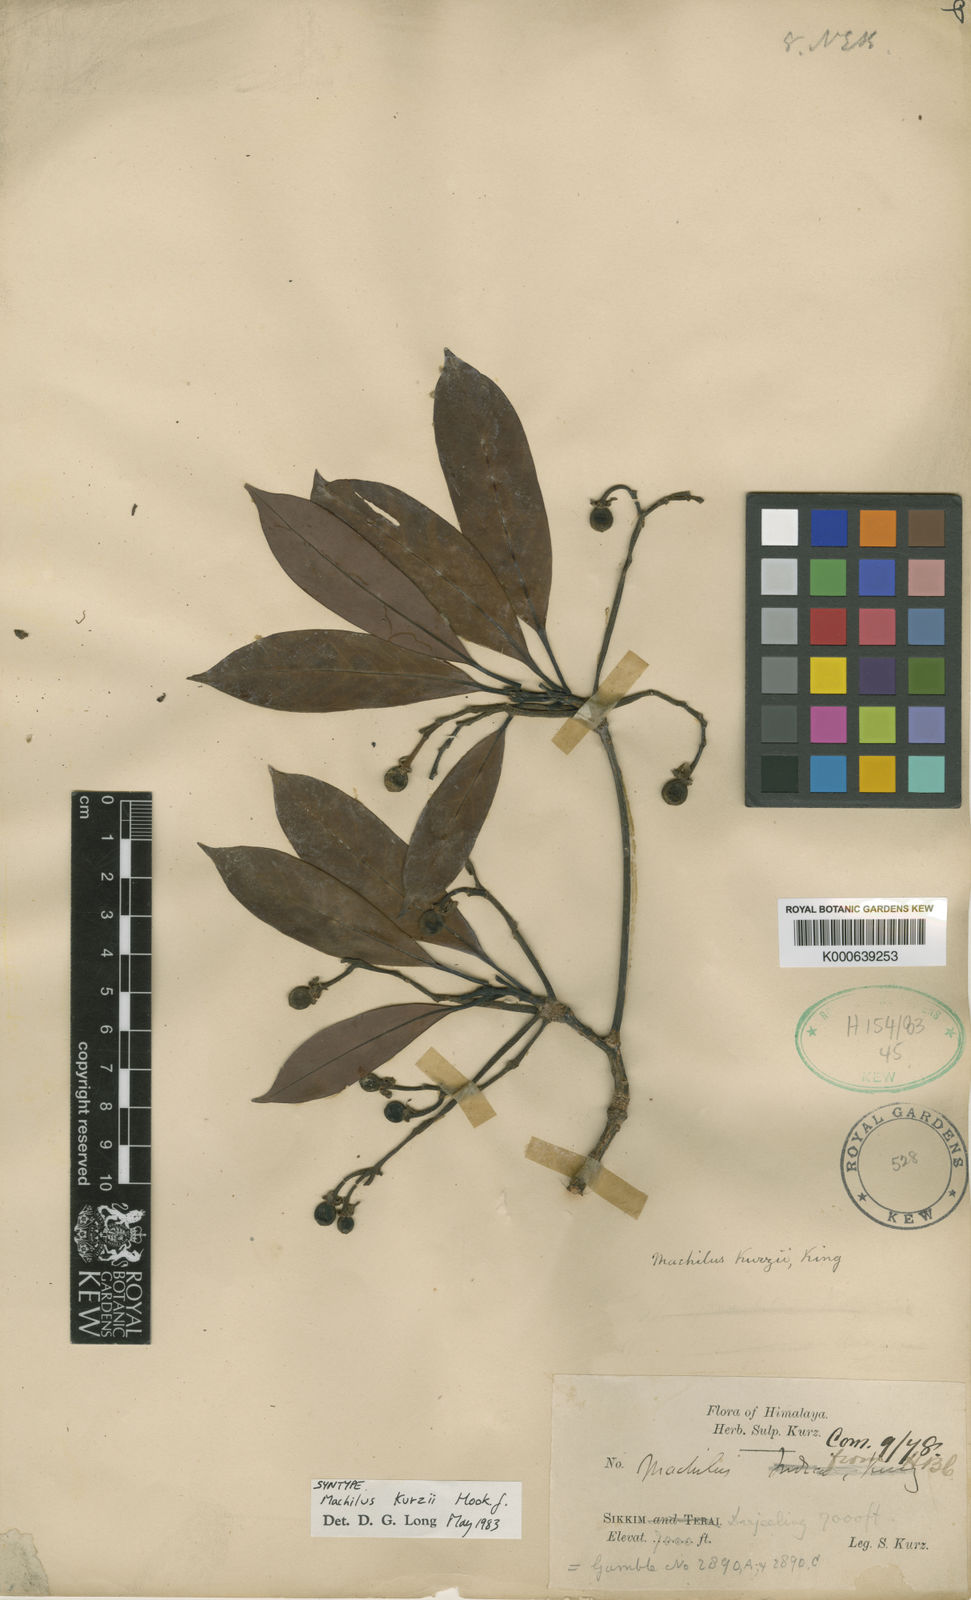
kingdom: Plantae
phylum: Tracheophyta
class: Magnoliopsida
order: Laurales
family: Lauraceae
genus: Machilus
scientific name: Machilus kurzii
